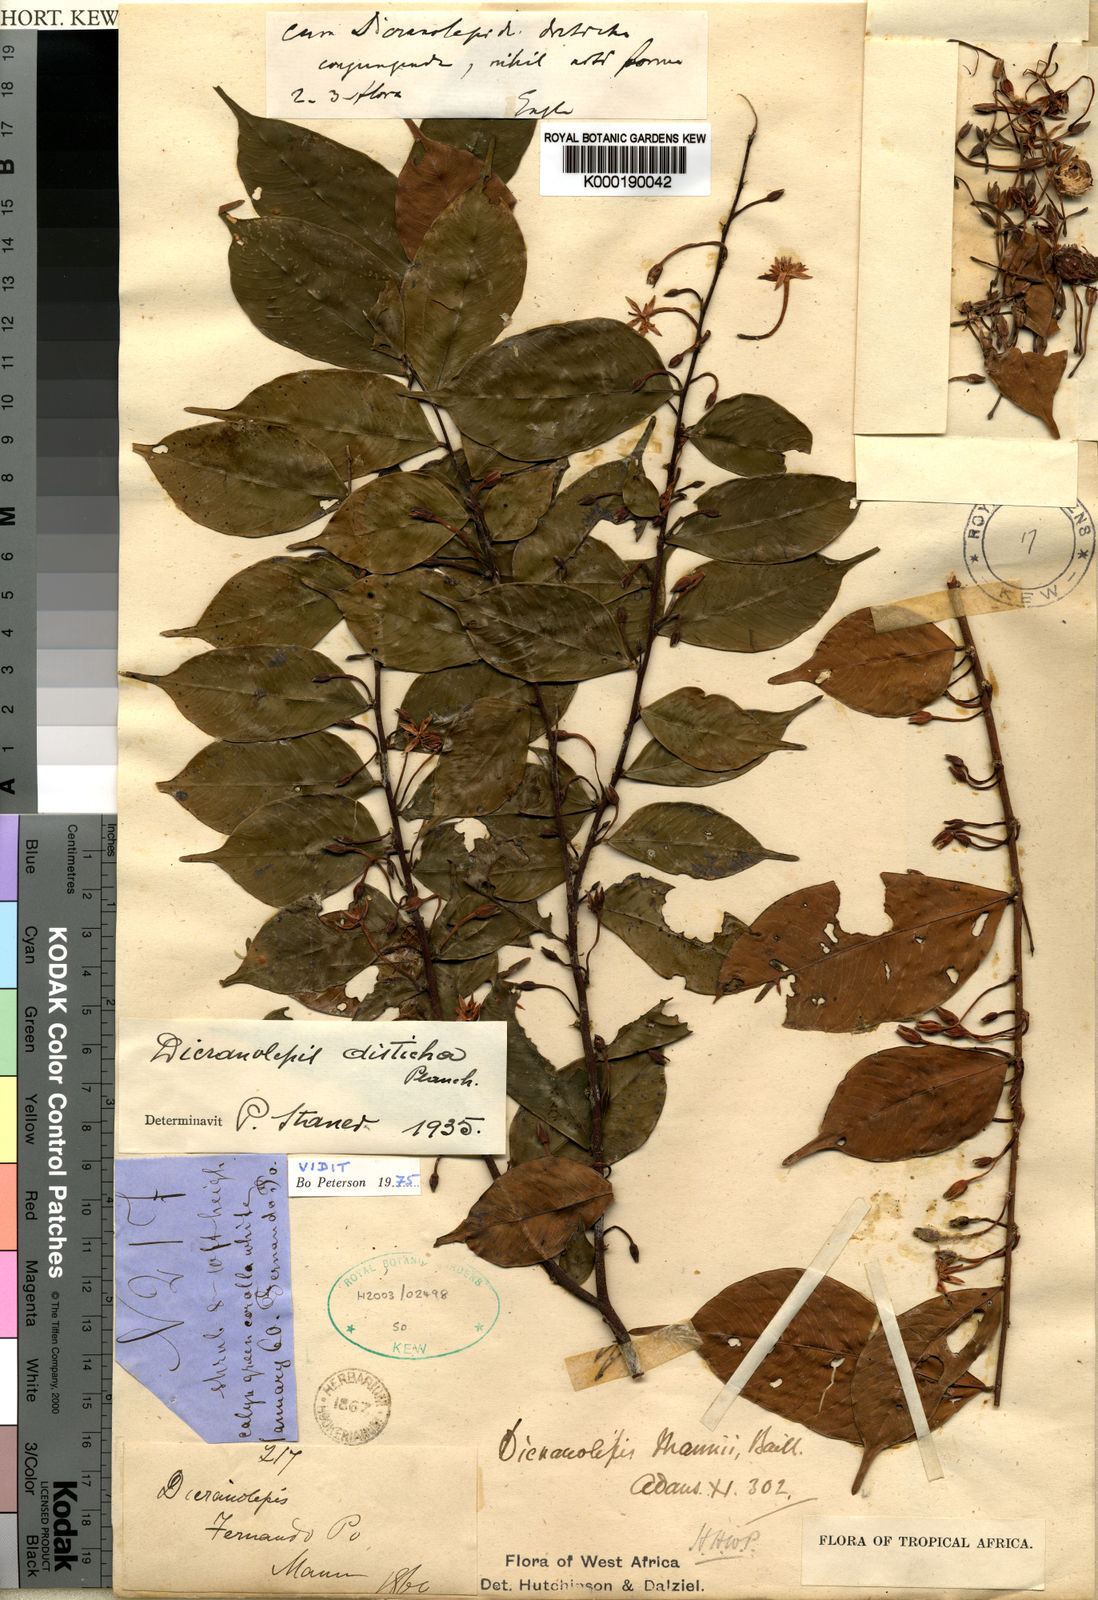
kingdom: Plantae
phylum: Tracheophyta
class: Magnoliopsida
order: Malvales
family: Thymelaeaceae
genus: Dicranolepis
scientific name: Dicranolepis disticha
